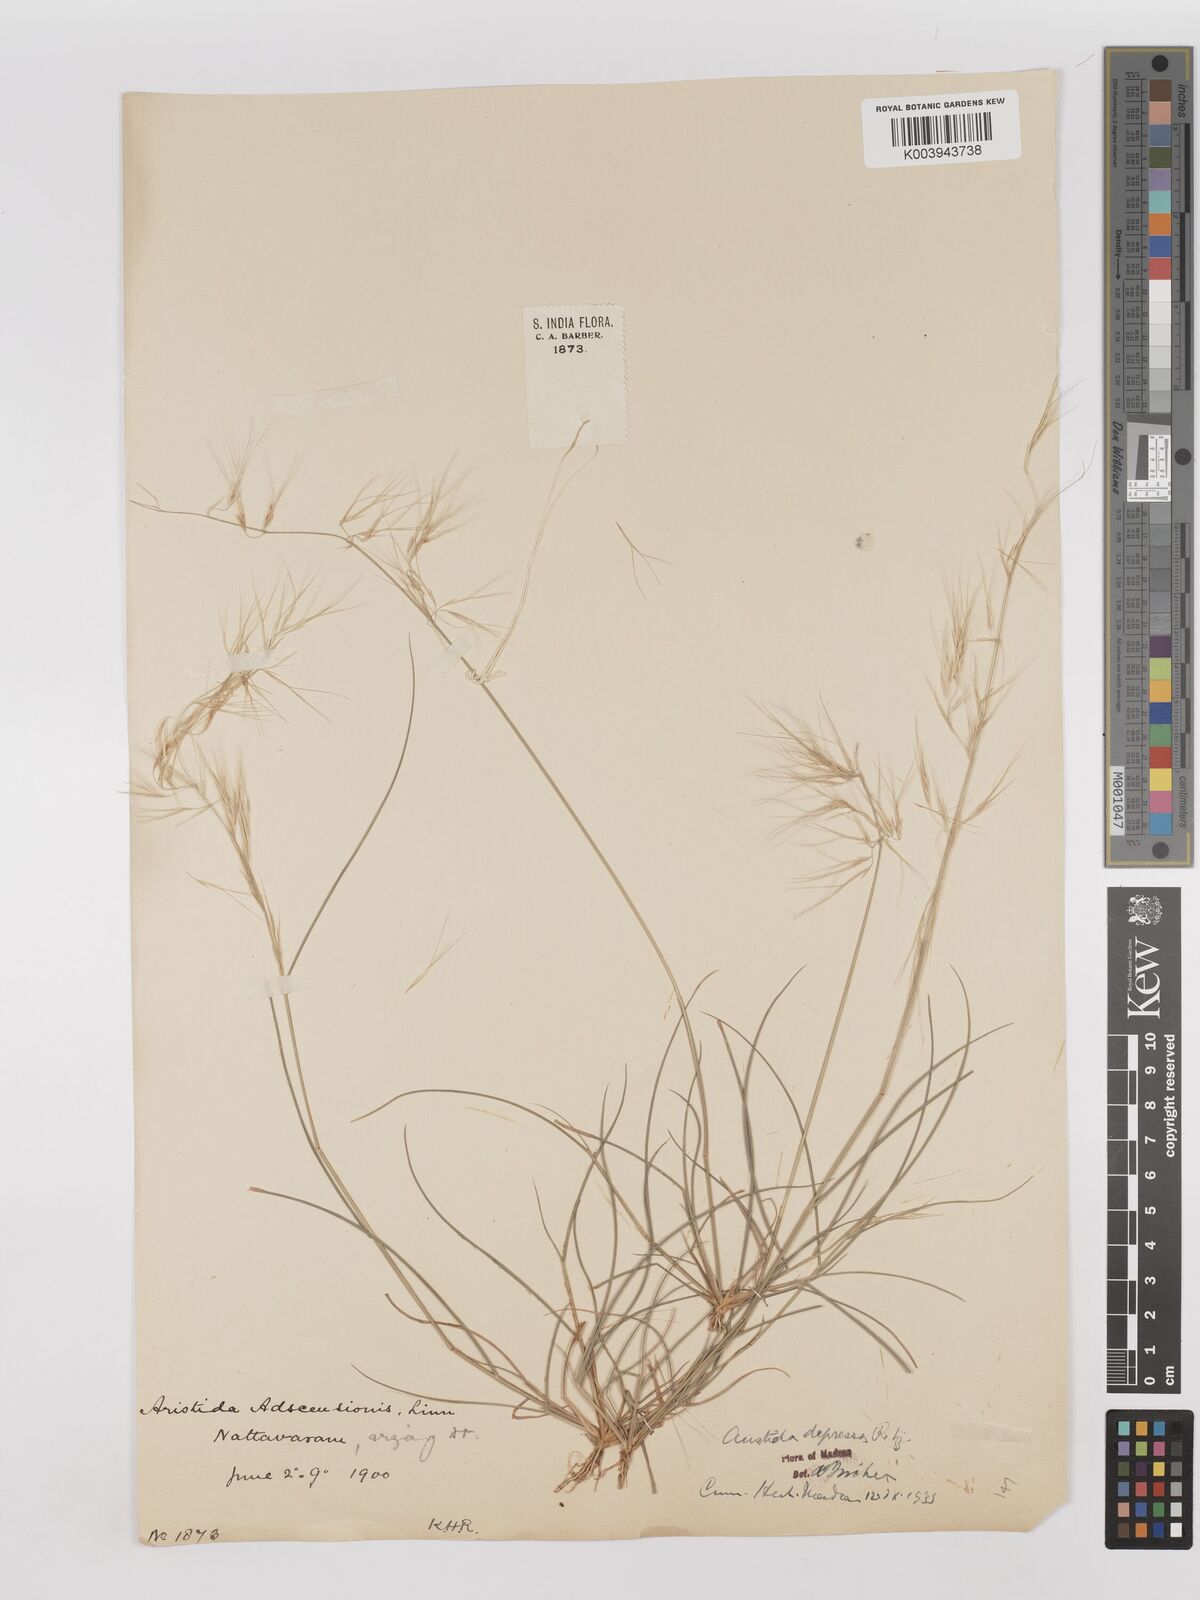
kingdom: Plantae
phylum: Tracheophyta
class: Liliopsida
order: Poales
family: Poaceae
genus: Aristida
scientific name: Aristida adscensionis
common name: Sixweeks threeawn
